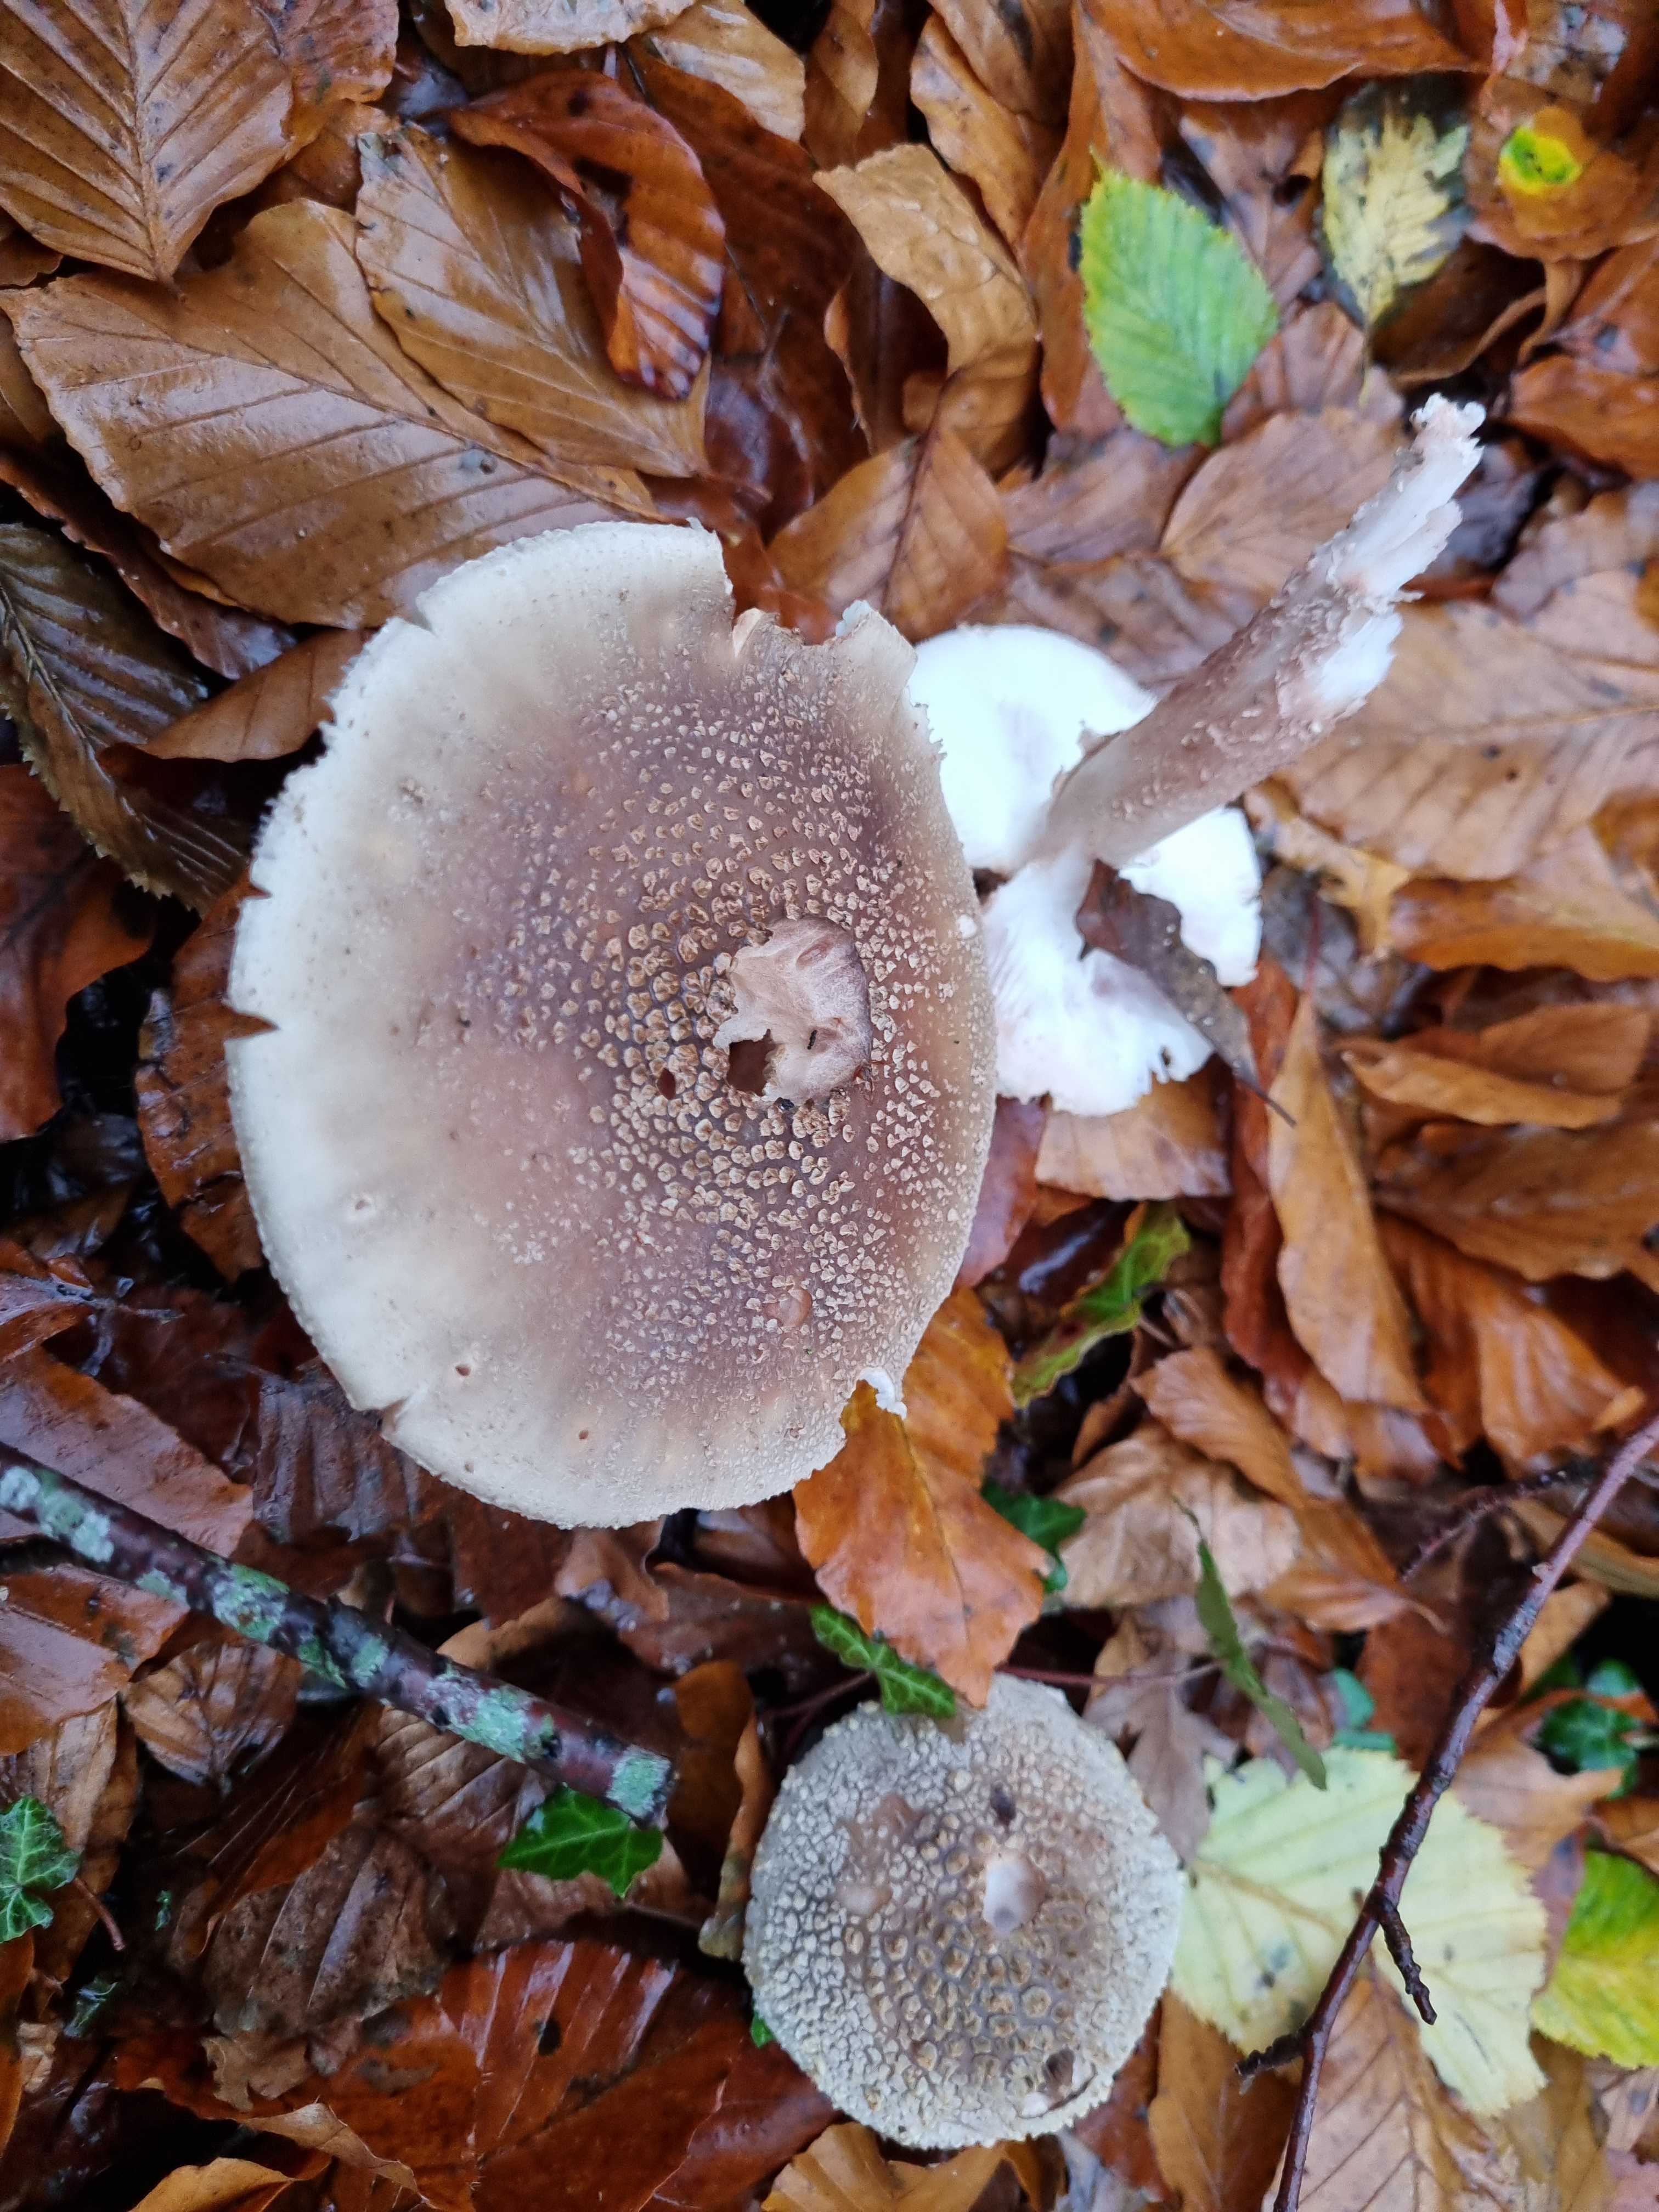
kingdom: Fungi
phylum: Basidiomycota
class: Agaricomycetes
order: Agaricales
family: Amanitaceae
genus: Amanita
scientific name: Amanita rubescens
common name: rødmende fluesvamp
